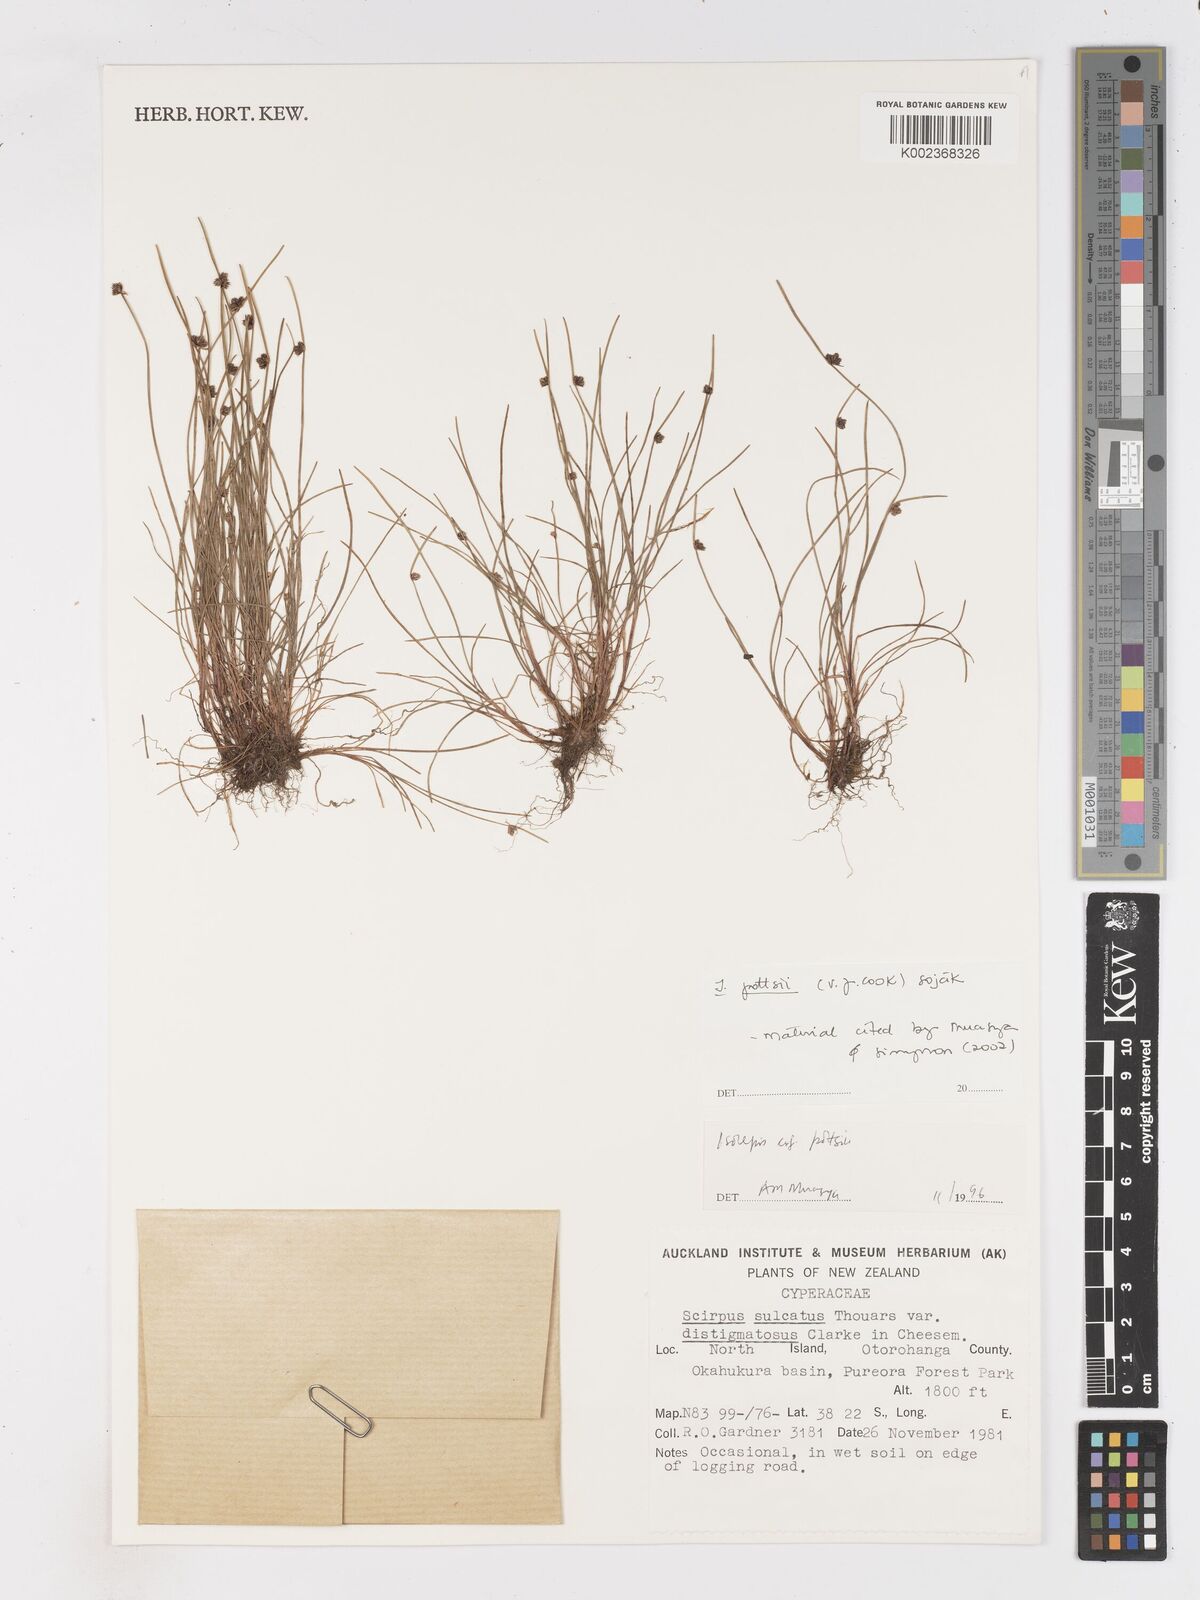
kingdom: Plantae
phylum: Tracheophyta
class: Liliopsida
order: Poales
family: Cyperaceae
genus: Isolepis
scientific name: Isolepis pottsii
